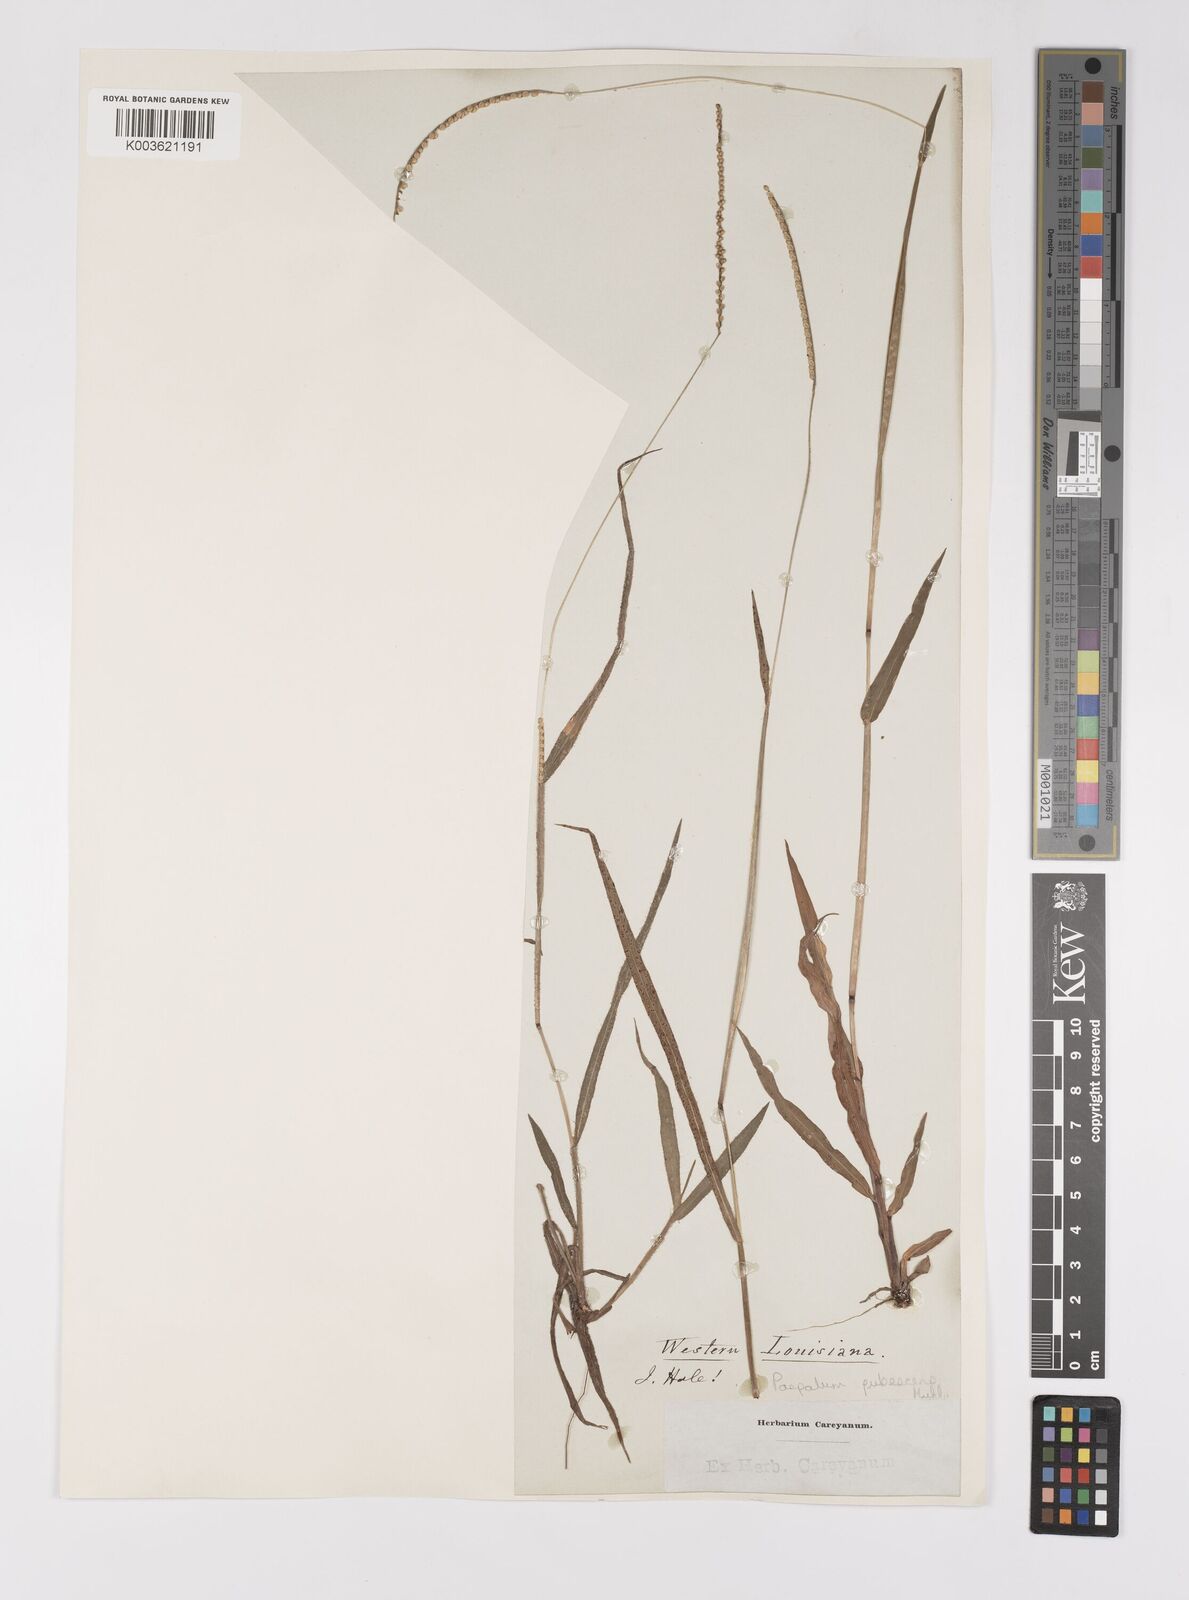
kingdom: Plantae
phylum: Tracheophyta
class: Liliopsida
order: Poales
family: Poaceae
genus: Paspalum
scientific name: Paspalum setaceum
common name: Slender paspalum
